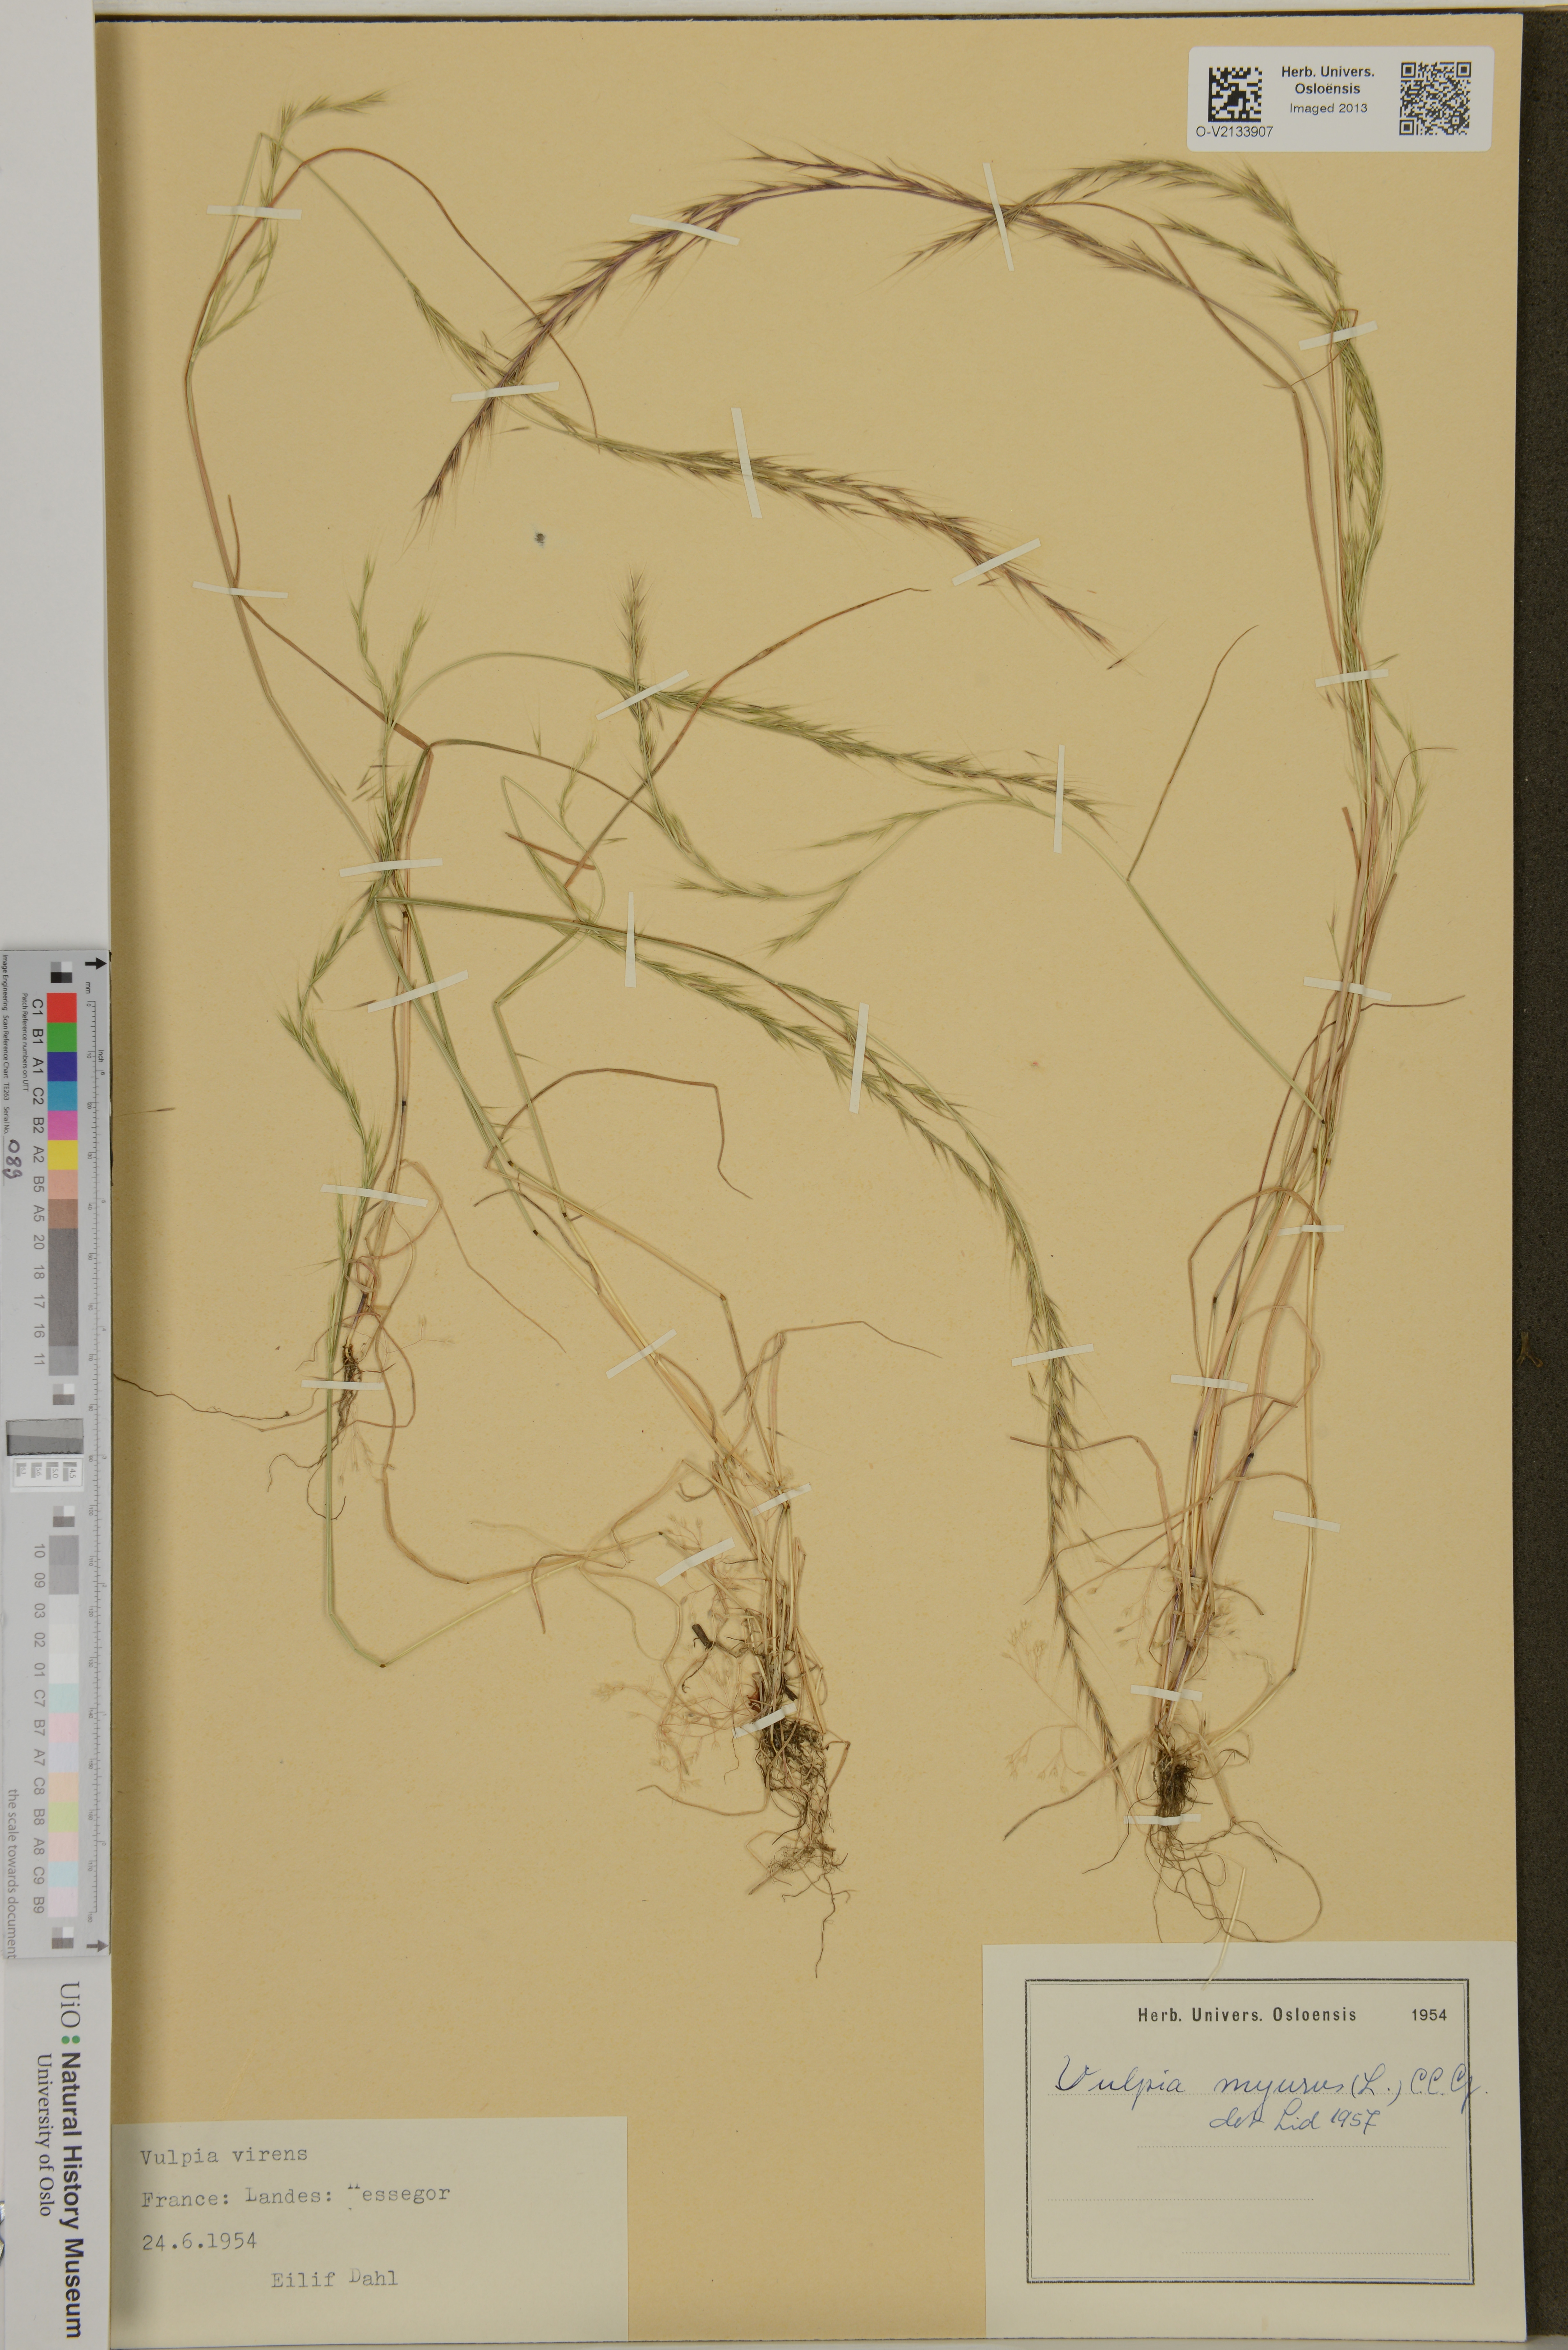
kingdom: Plantae
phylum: Tracheophyta
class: Liliopsida
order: Poales
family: Poaceae
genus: Festuca
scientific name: Festuca myuros
